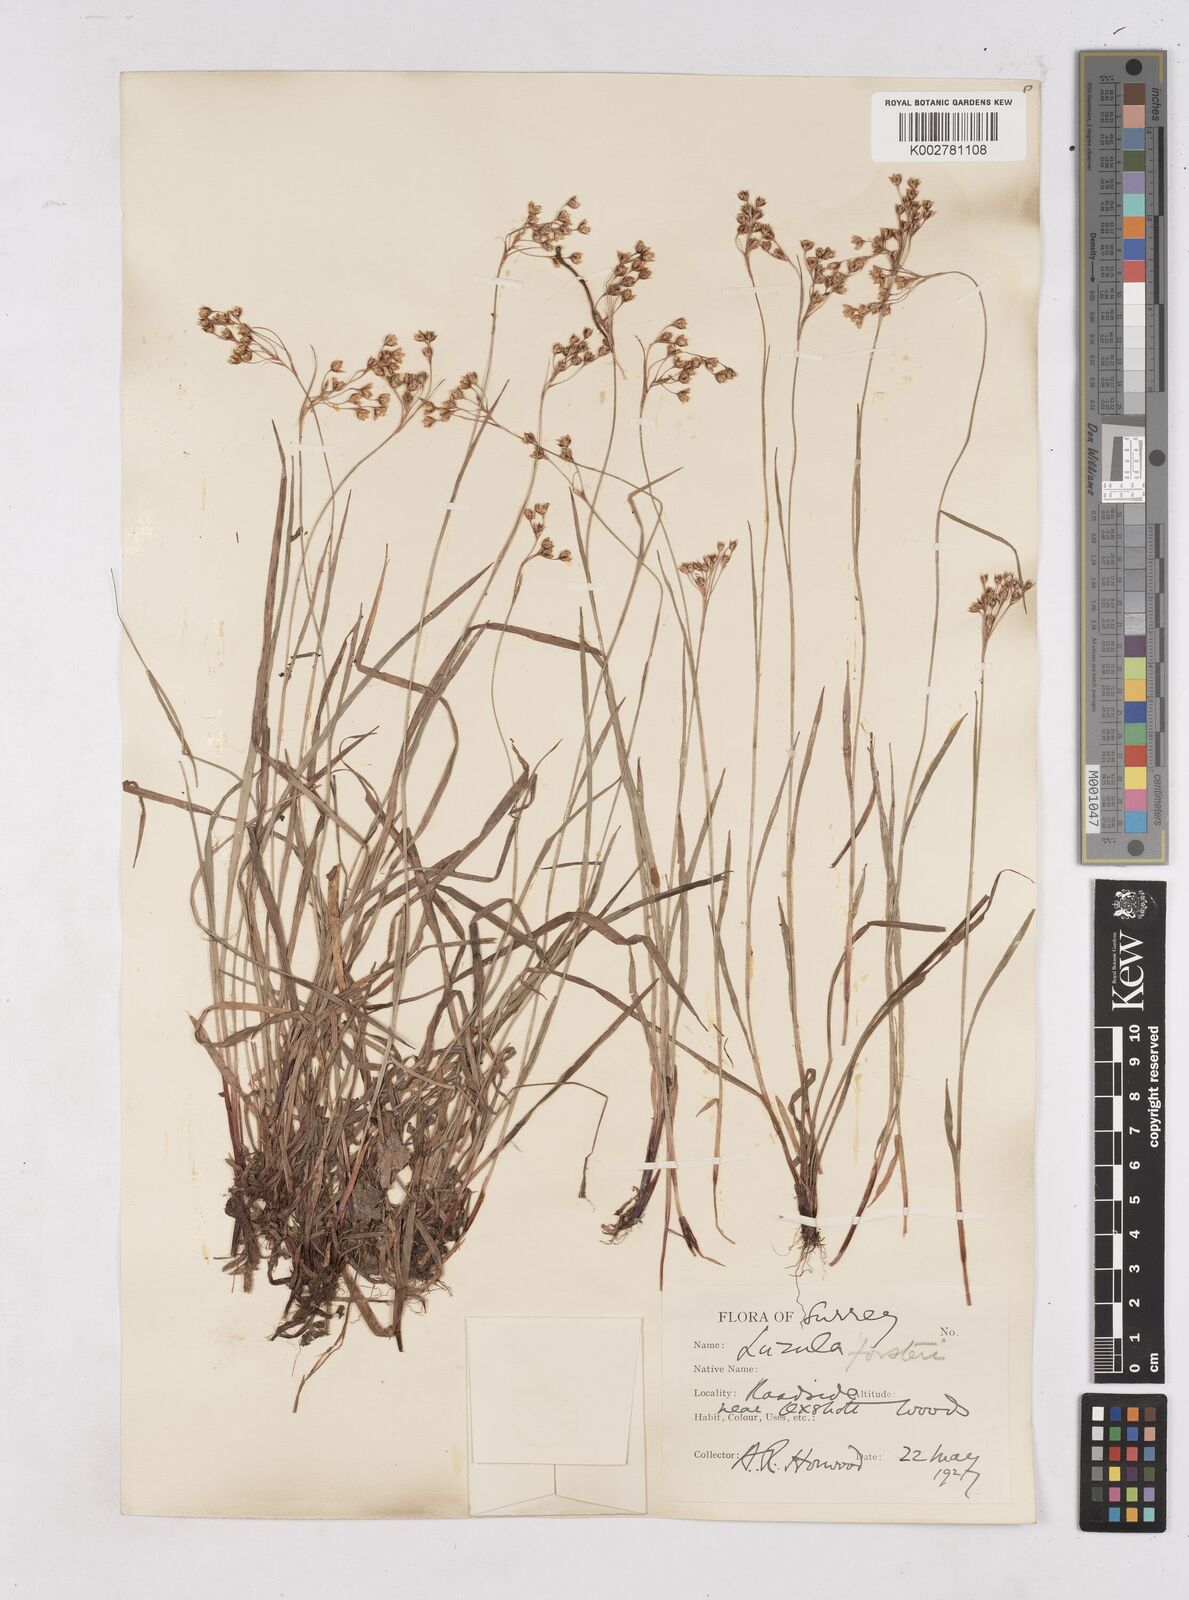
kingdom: Plantae
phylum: Tracheophyta
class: Liliopsida
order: Poales
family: Juncaceae
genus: Luzula
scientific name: Luzula forsteri
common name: Southern wood-rush
